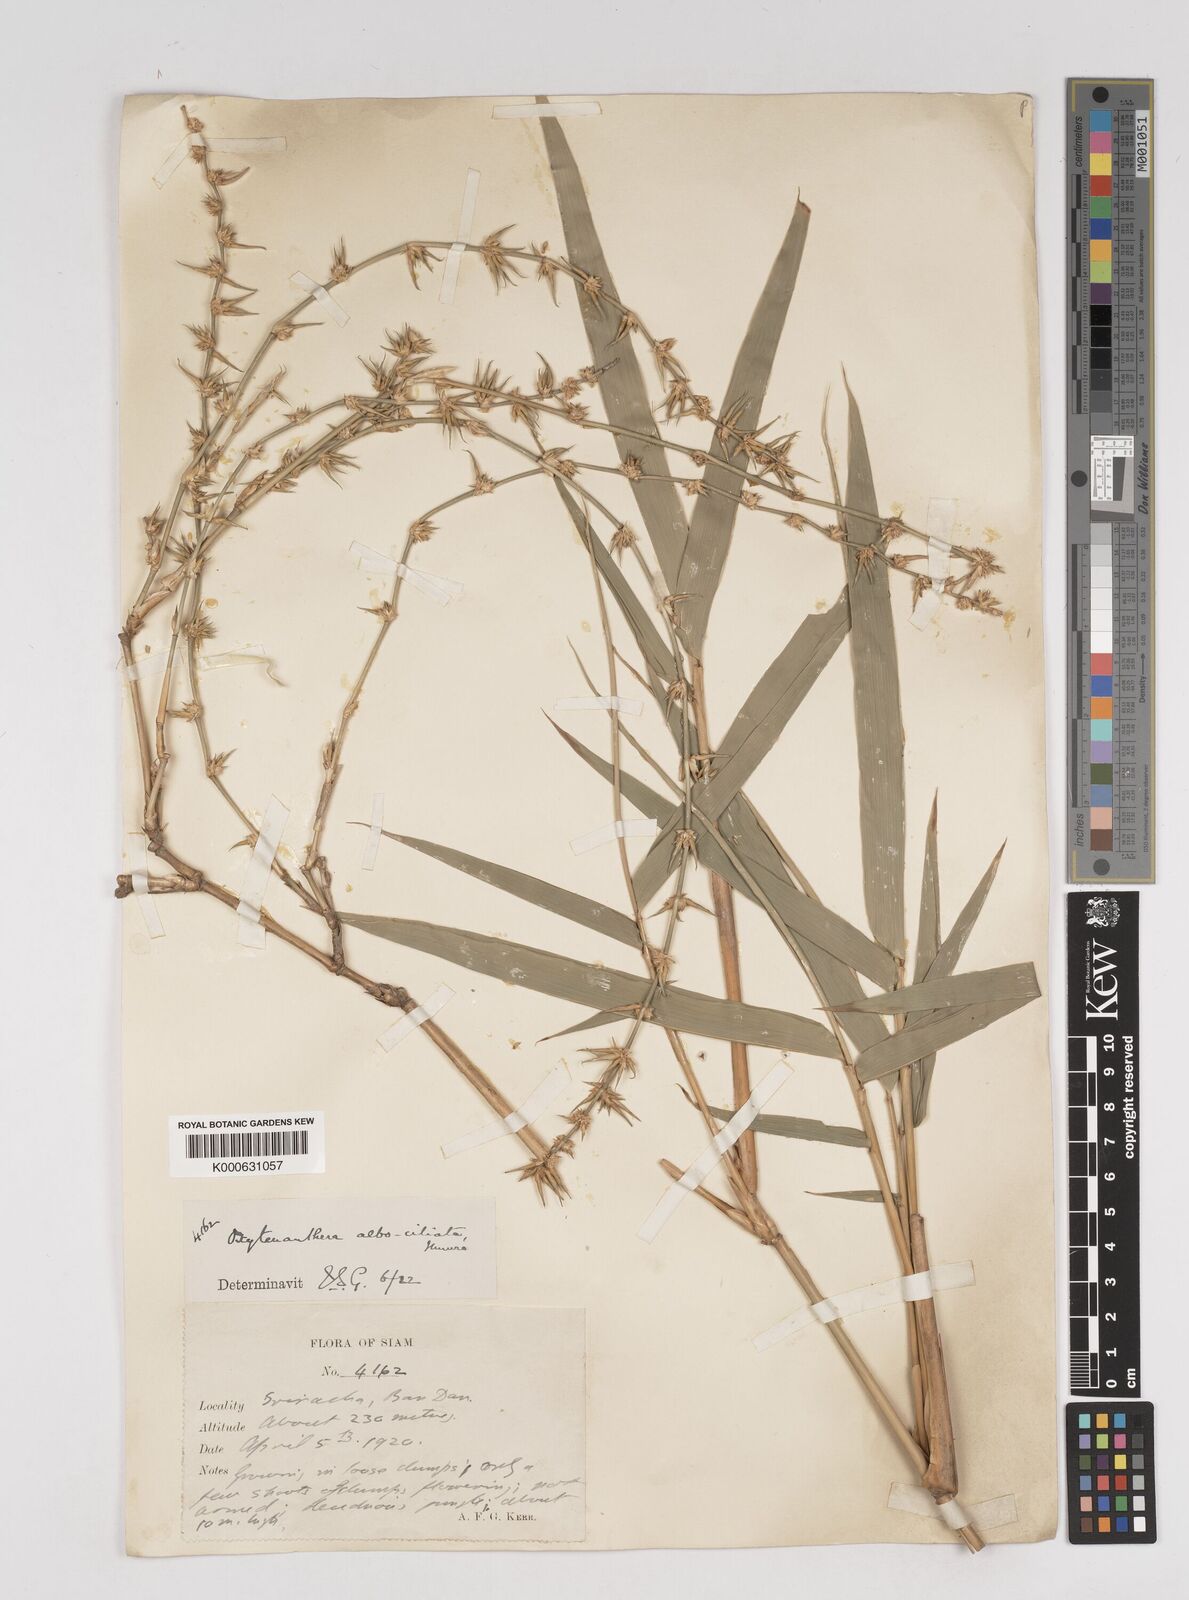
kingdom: Plantae
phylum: Tracheophyta
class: Liliopsida
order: Poales
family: Poaceae
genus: Gigantochloa
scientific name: Gigantochloa albociliata
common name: White-fringe gigantochloa
